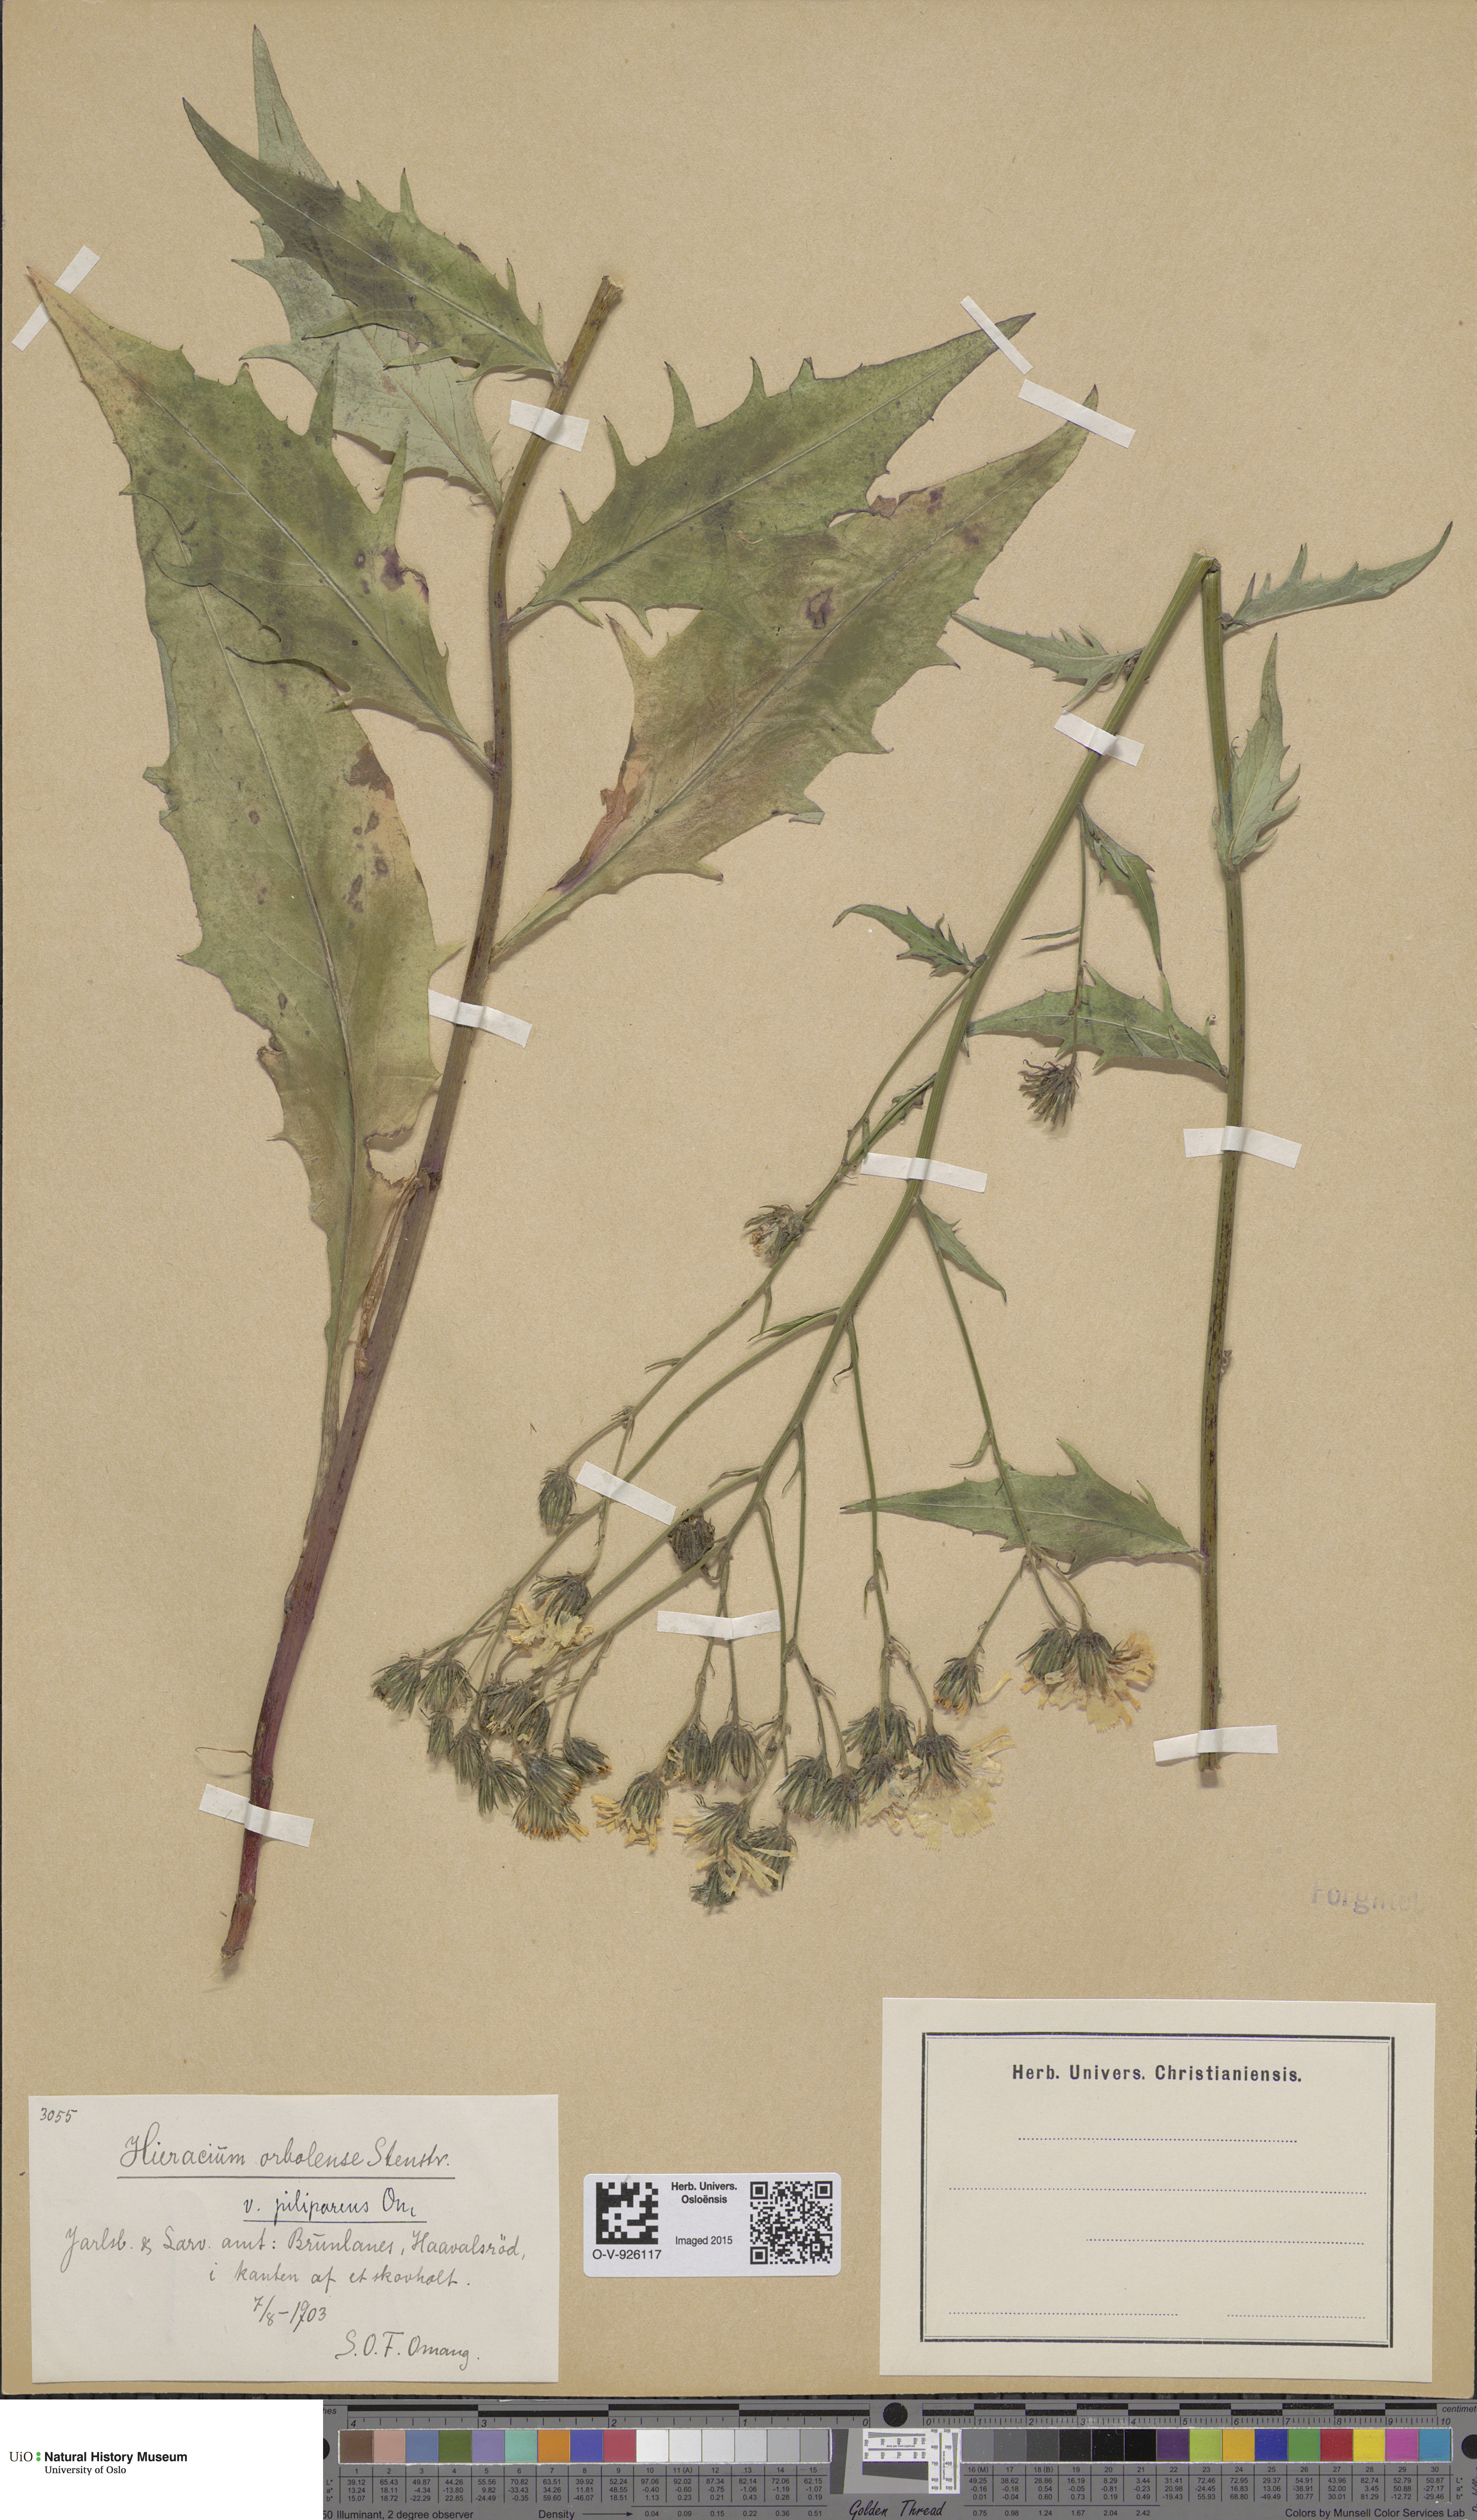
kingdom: Plantae
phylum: Tracheophyta
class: Magnoliopsida
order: Asterales
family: Asteraceae
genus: Hieracium
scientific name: Hieracium orbolense
